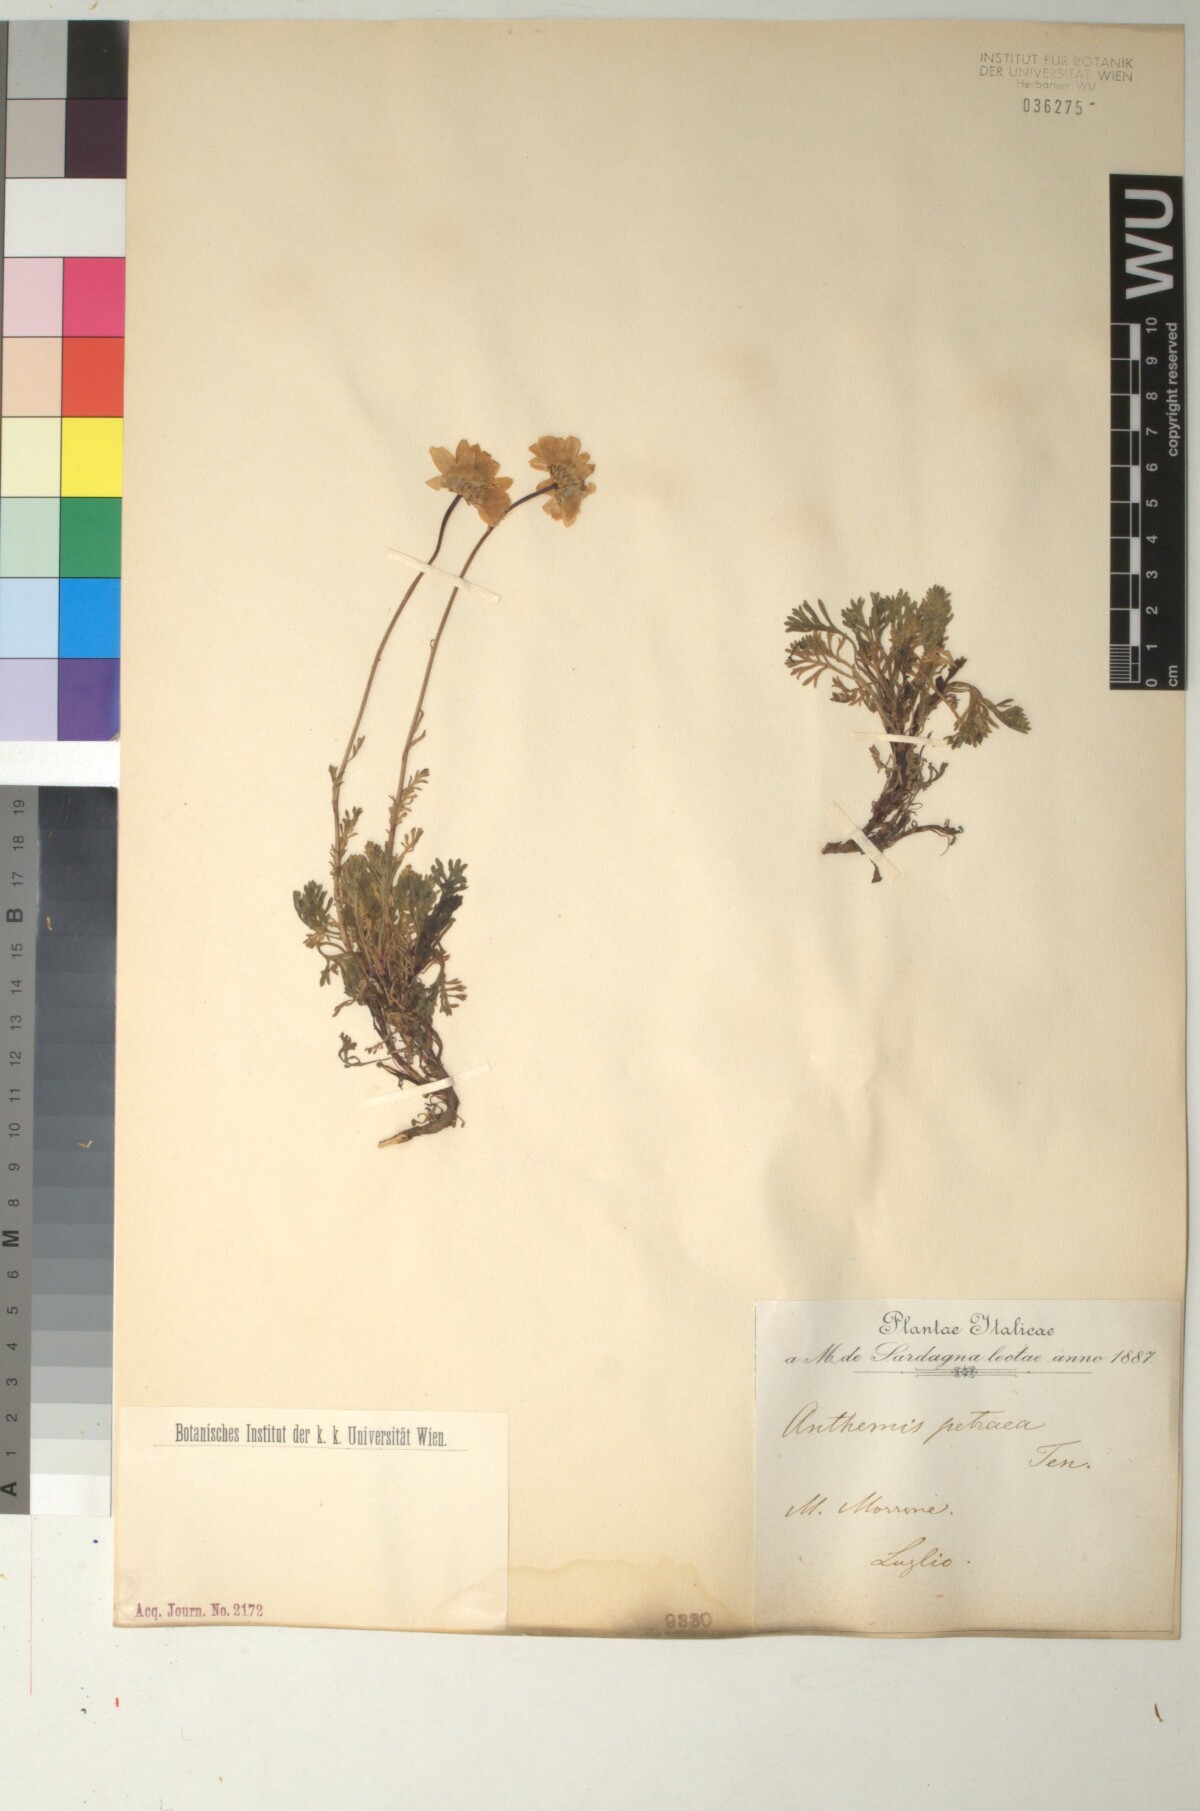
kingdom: Plantae
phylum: Tracheophyta
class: Magnoliopsida
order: Asterales
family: Asteraceae
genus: Anthemis
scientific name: Anthemis cretica
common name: Mountain dog-daisy
